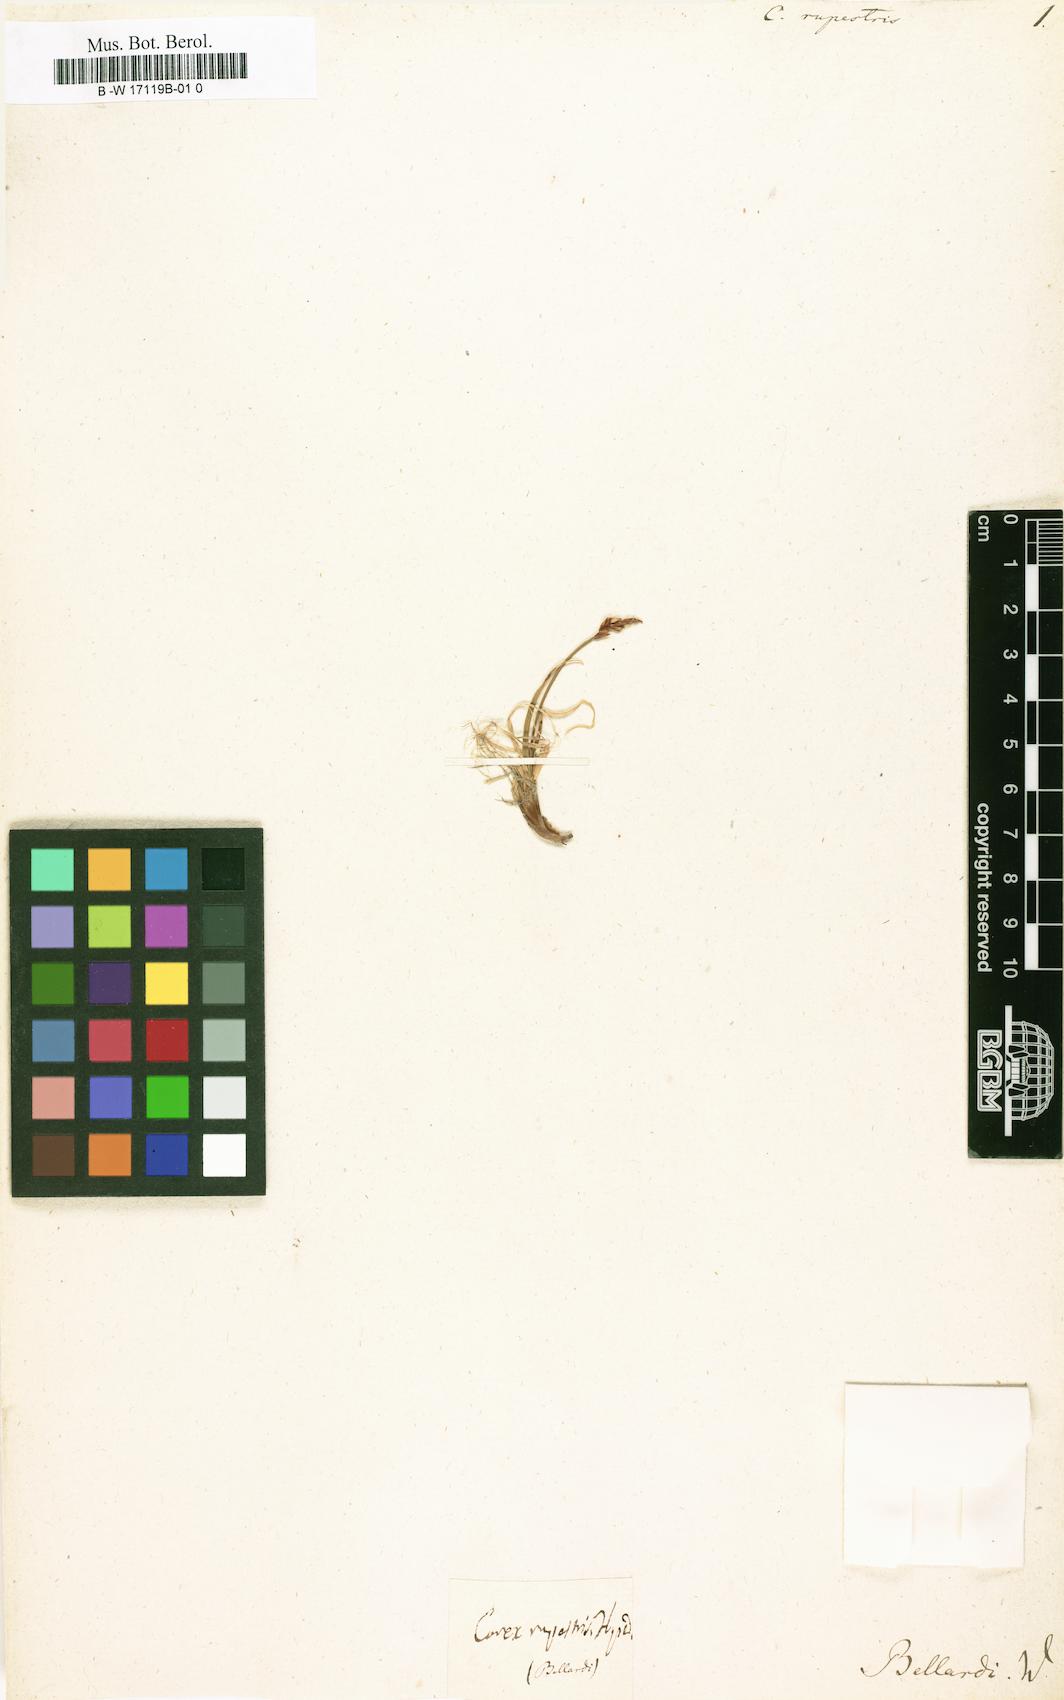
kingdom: Plantae
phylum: Tracheophyta
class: Liliopsida
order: Poales
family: Cyperaceae
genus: Carex
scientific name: Carex rupestris
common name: Rock sedge
